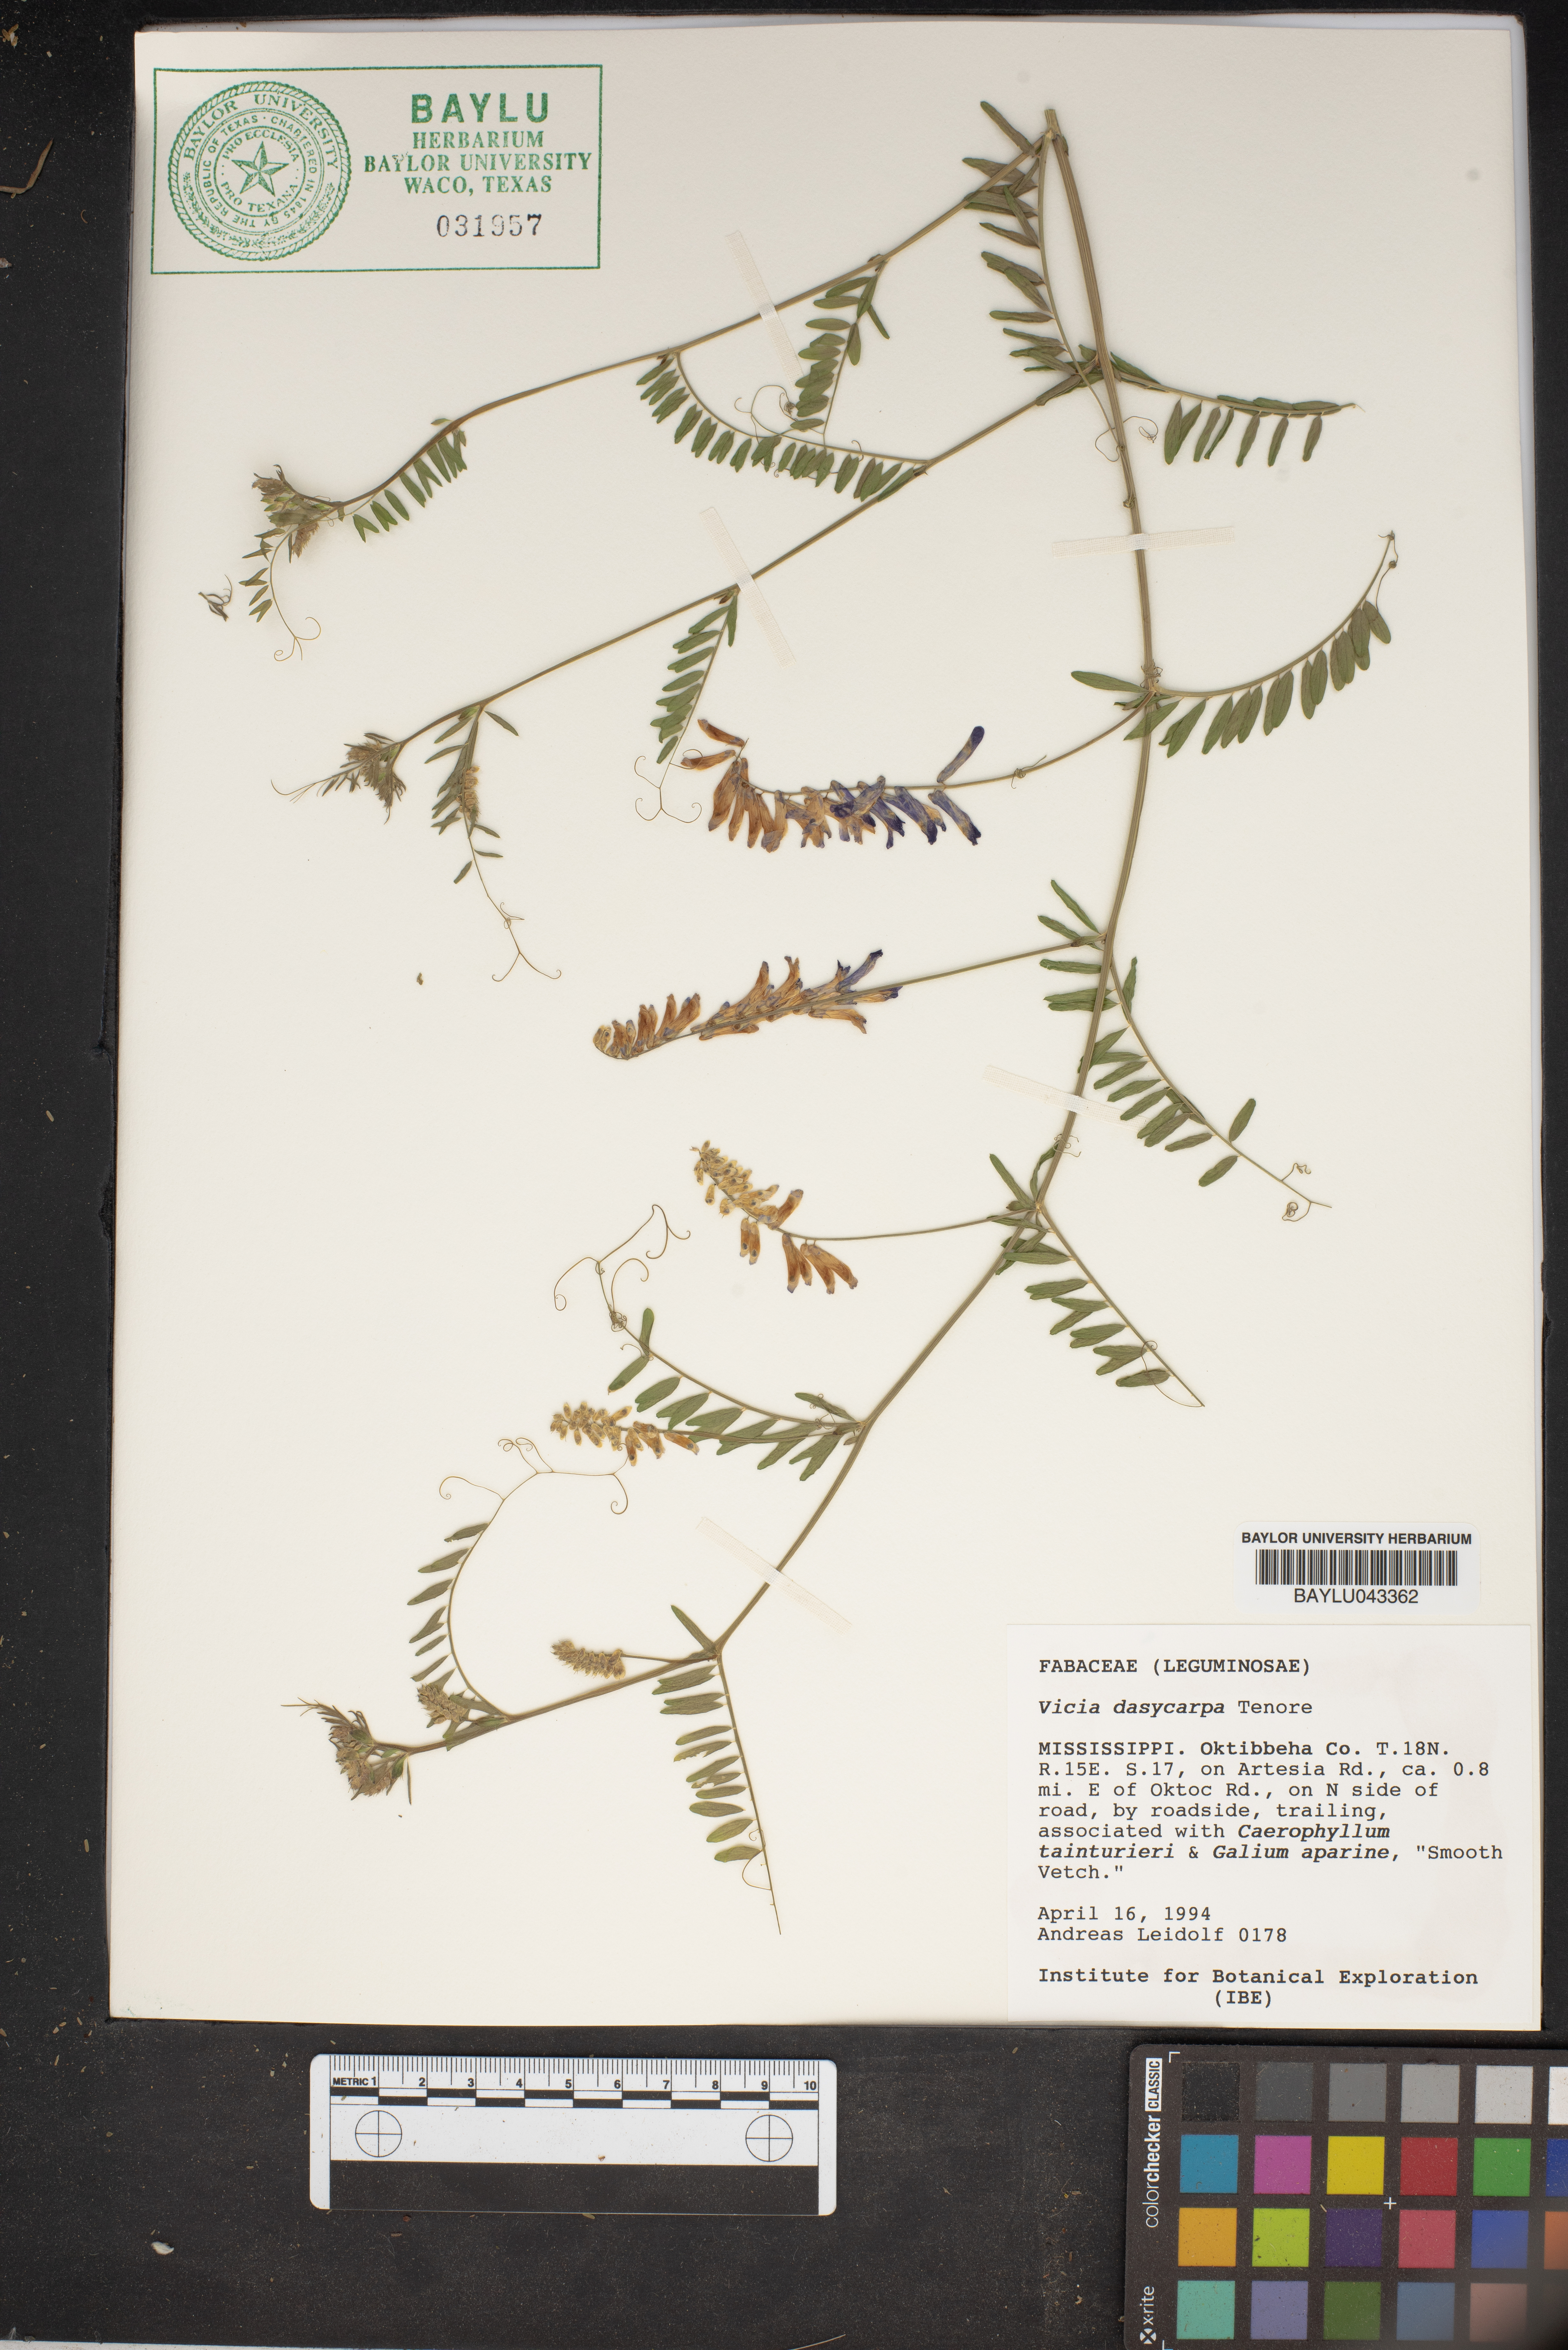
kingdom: Plantae
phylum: Tracheophyta
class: Magnoliopsida
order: Fabales
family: Fabaceae
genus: Vicia
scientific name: Vicia villosa
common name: Fodder vetch
